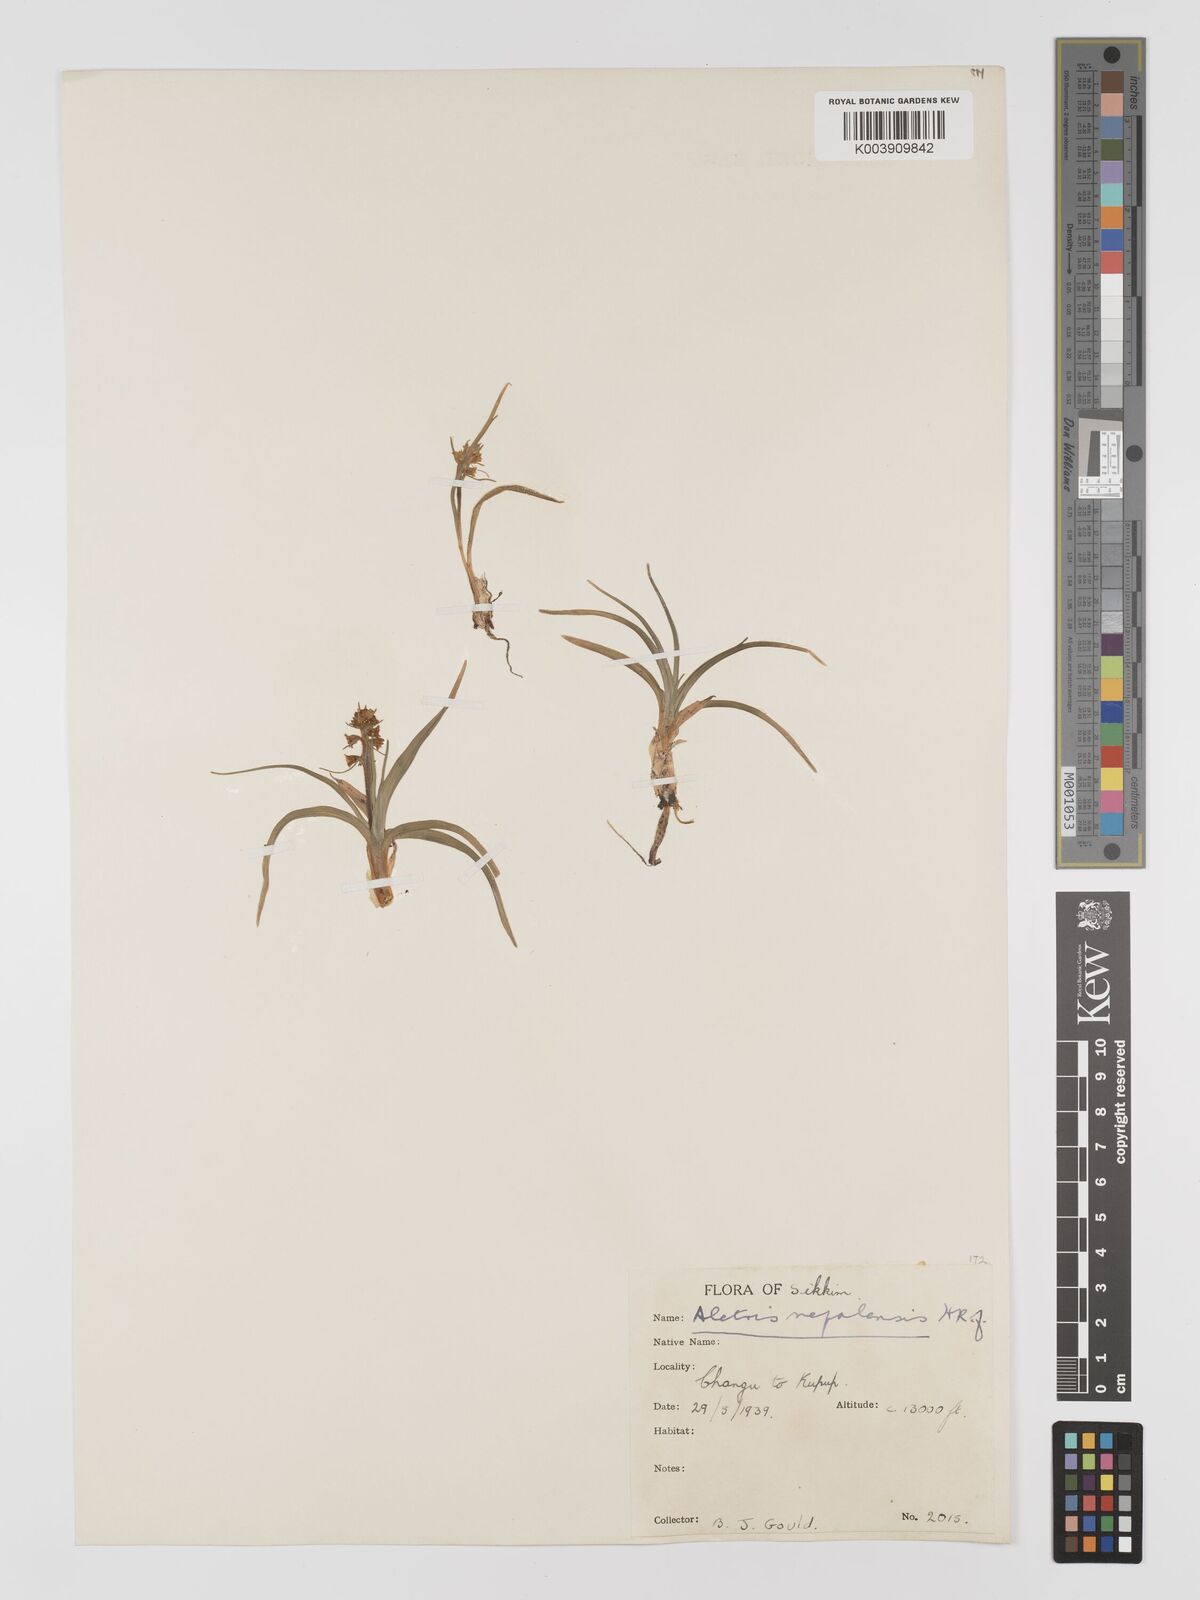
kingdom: Plantae
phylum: Tracheophyta
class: Liliopsida
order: Dioscoreales
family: Nartheciaceae
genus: Aletris
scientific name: Aletris pauciflora
